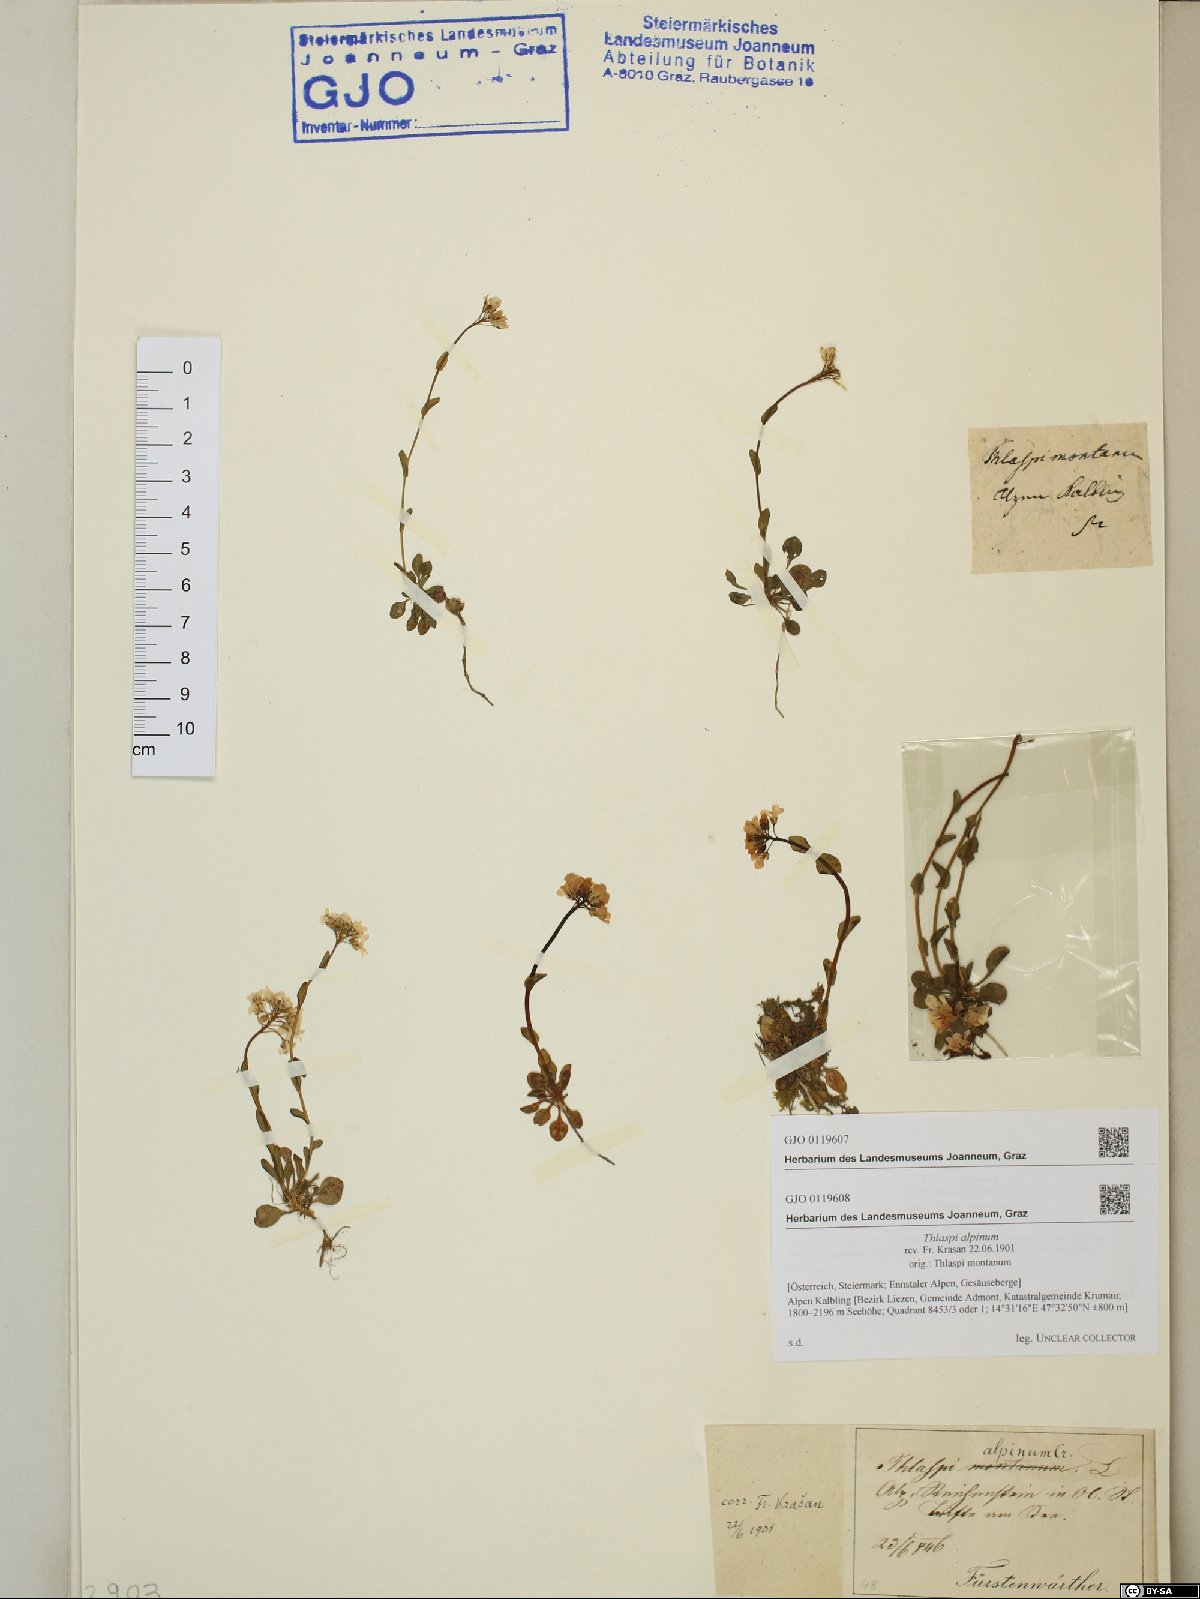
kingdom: Plantae
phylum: Tracheophyta
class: Magnoliopsida
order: Brassicales
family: Brassicaceae
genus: Noccaea
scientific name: Noccaea alpestris
